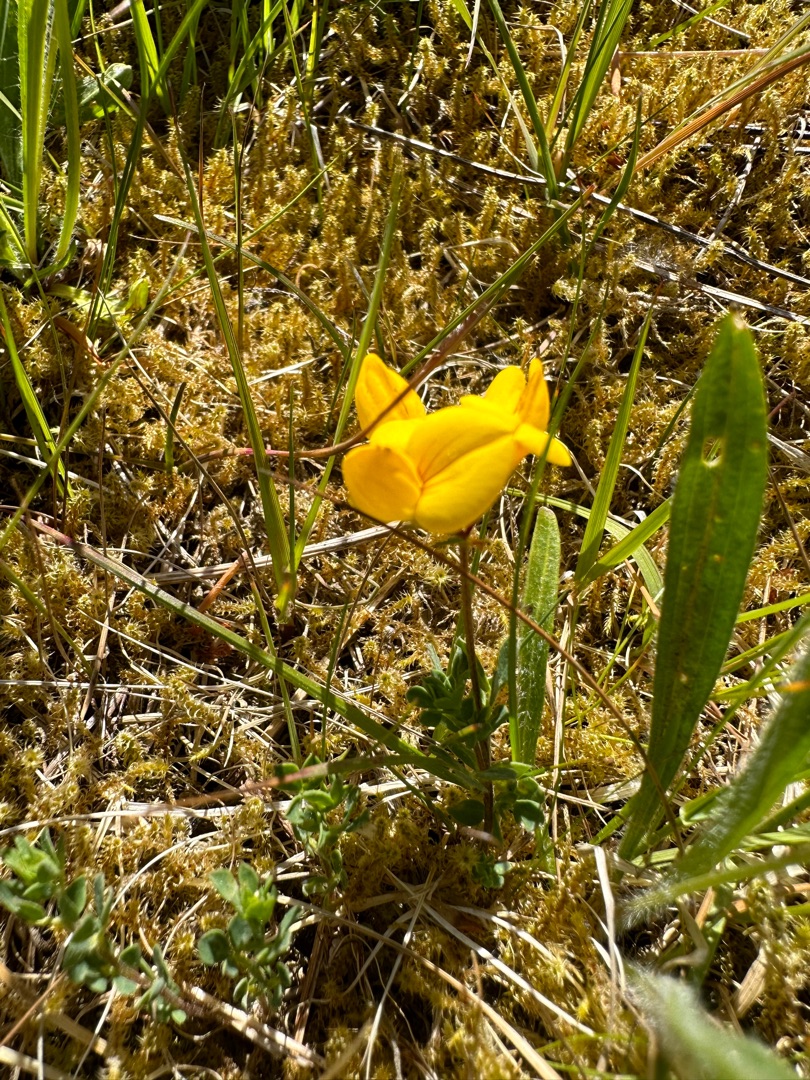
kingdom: Plantae
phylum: Tracheophyta
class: Magnoliopsida
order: Fabales
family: Fabaceae
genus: Lotus
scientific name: Lotus corniculatus
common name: Almindelig kællingetand
